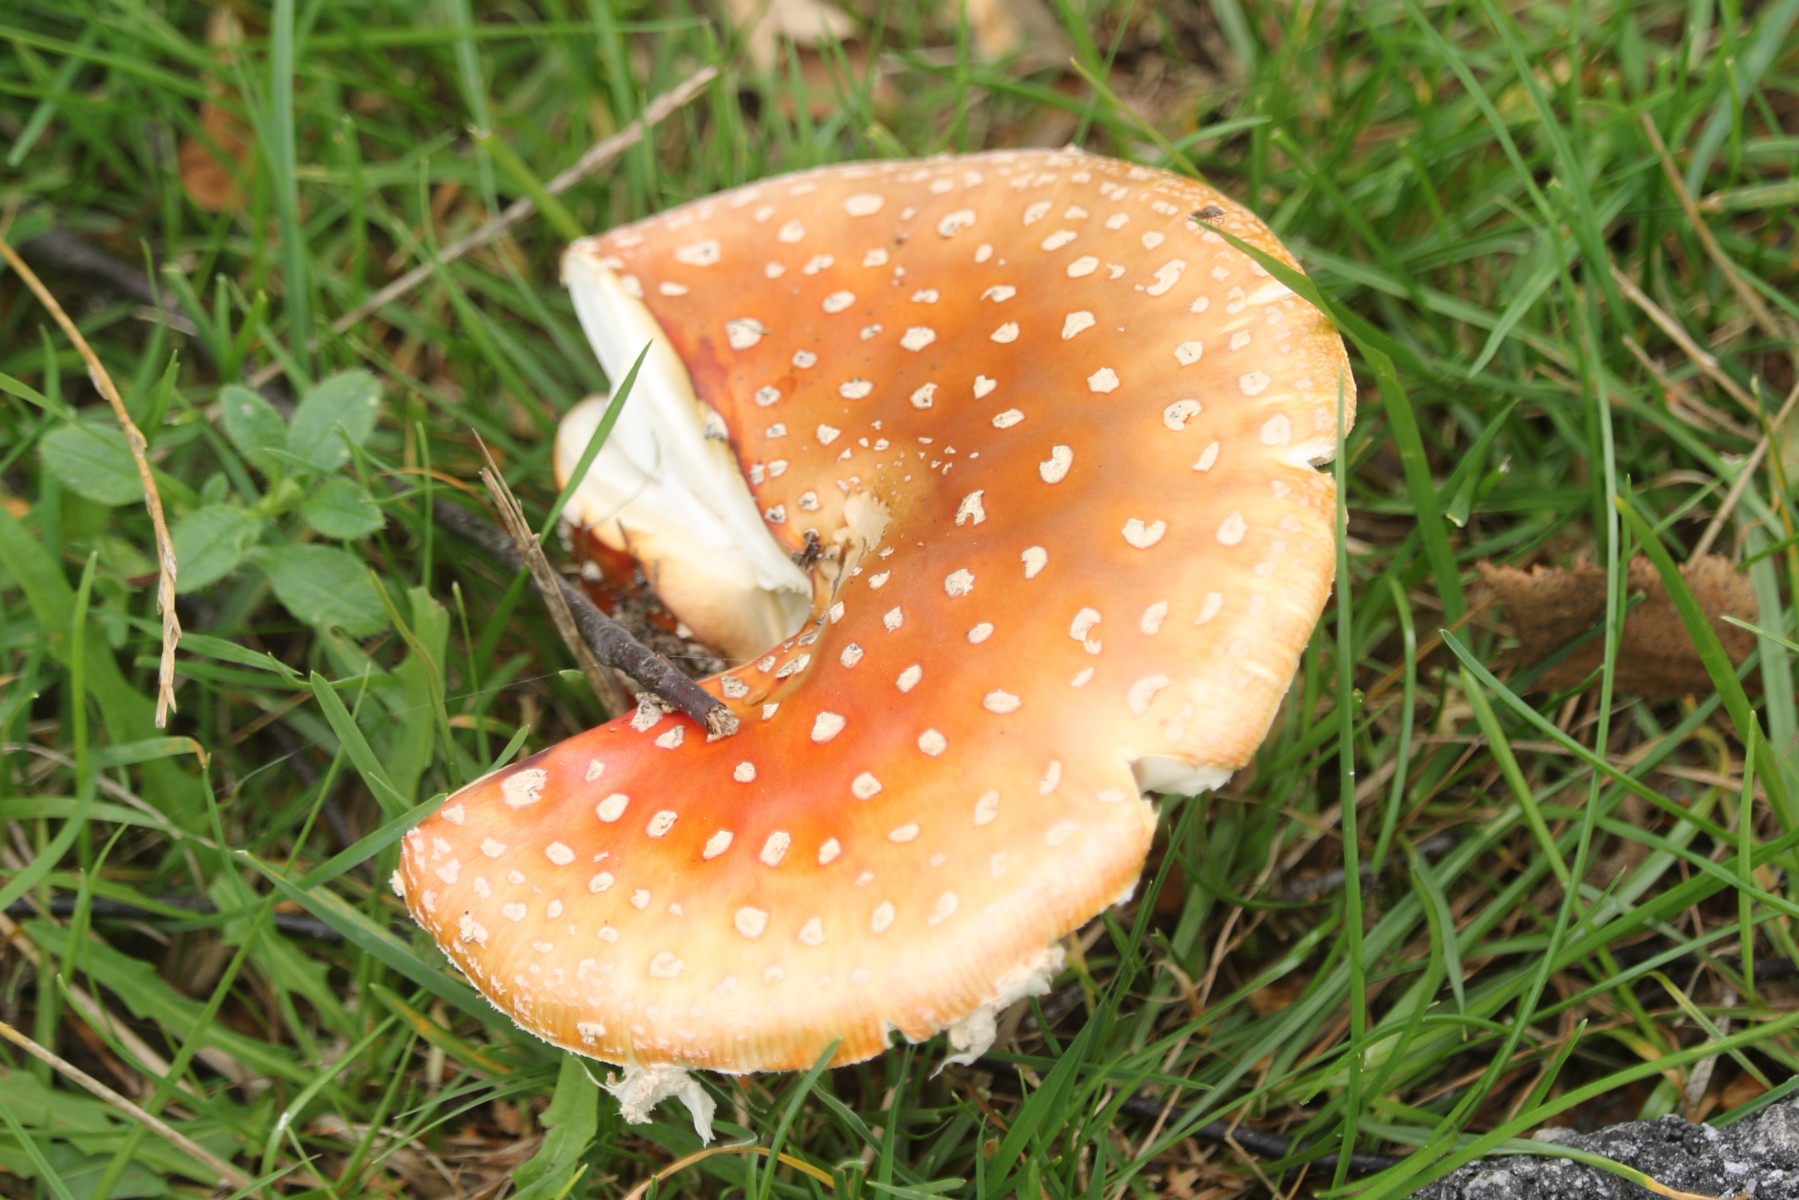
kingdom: Fungi
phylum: Basidiomycota
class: Agaricomycetes
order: Agaricales
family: Amanitaceae
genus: Amanita
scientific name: Amanita muscaria
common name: rød fluesvamp
